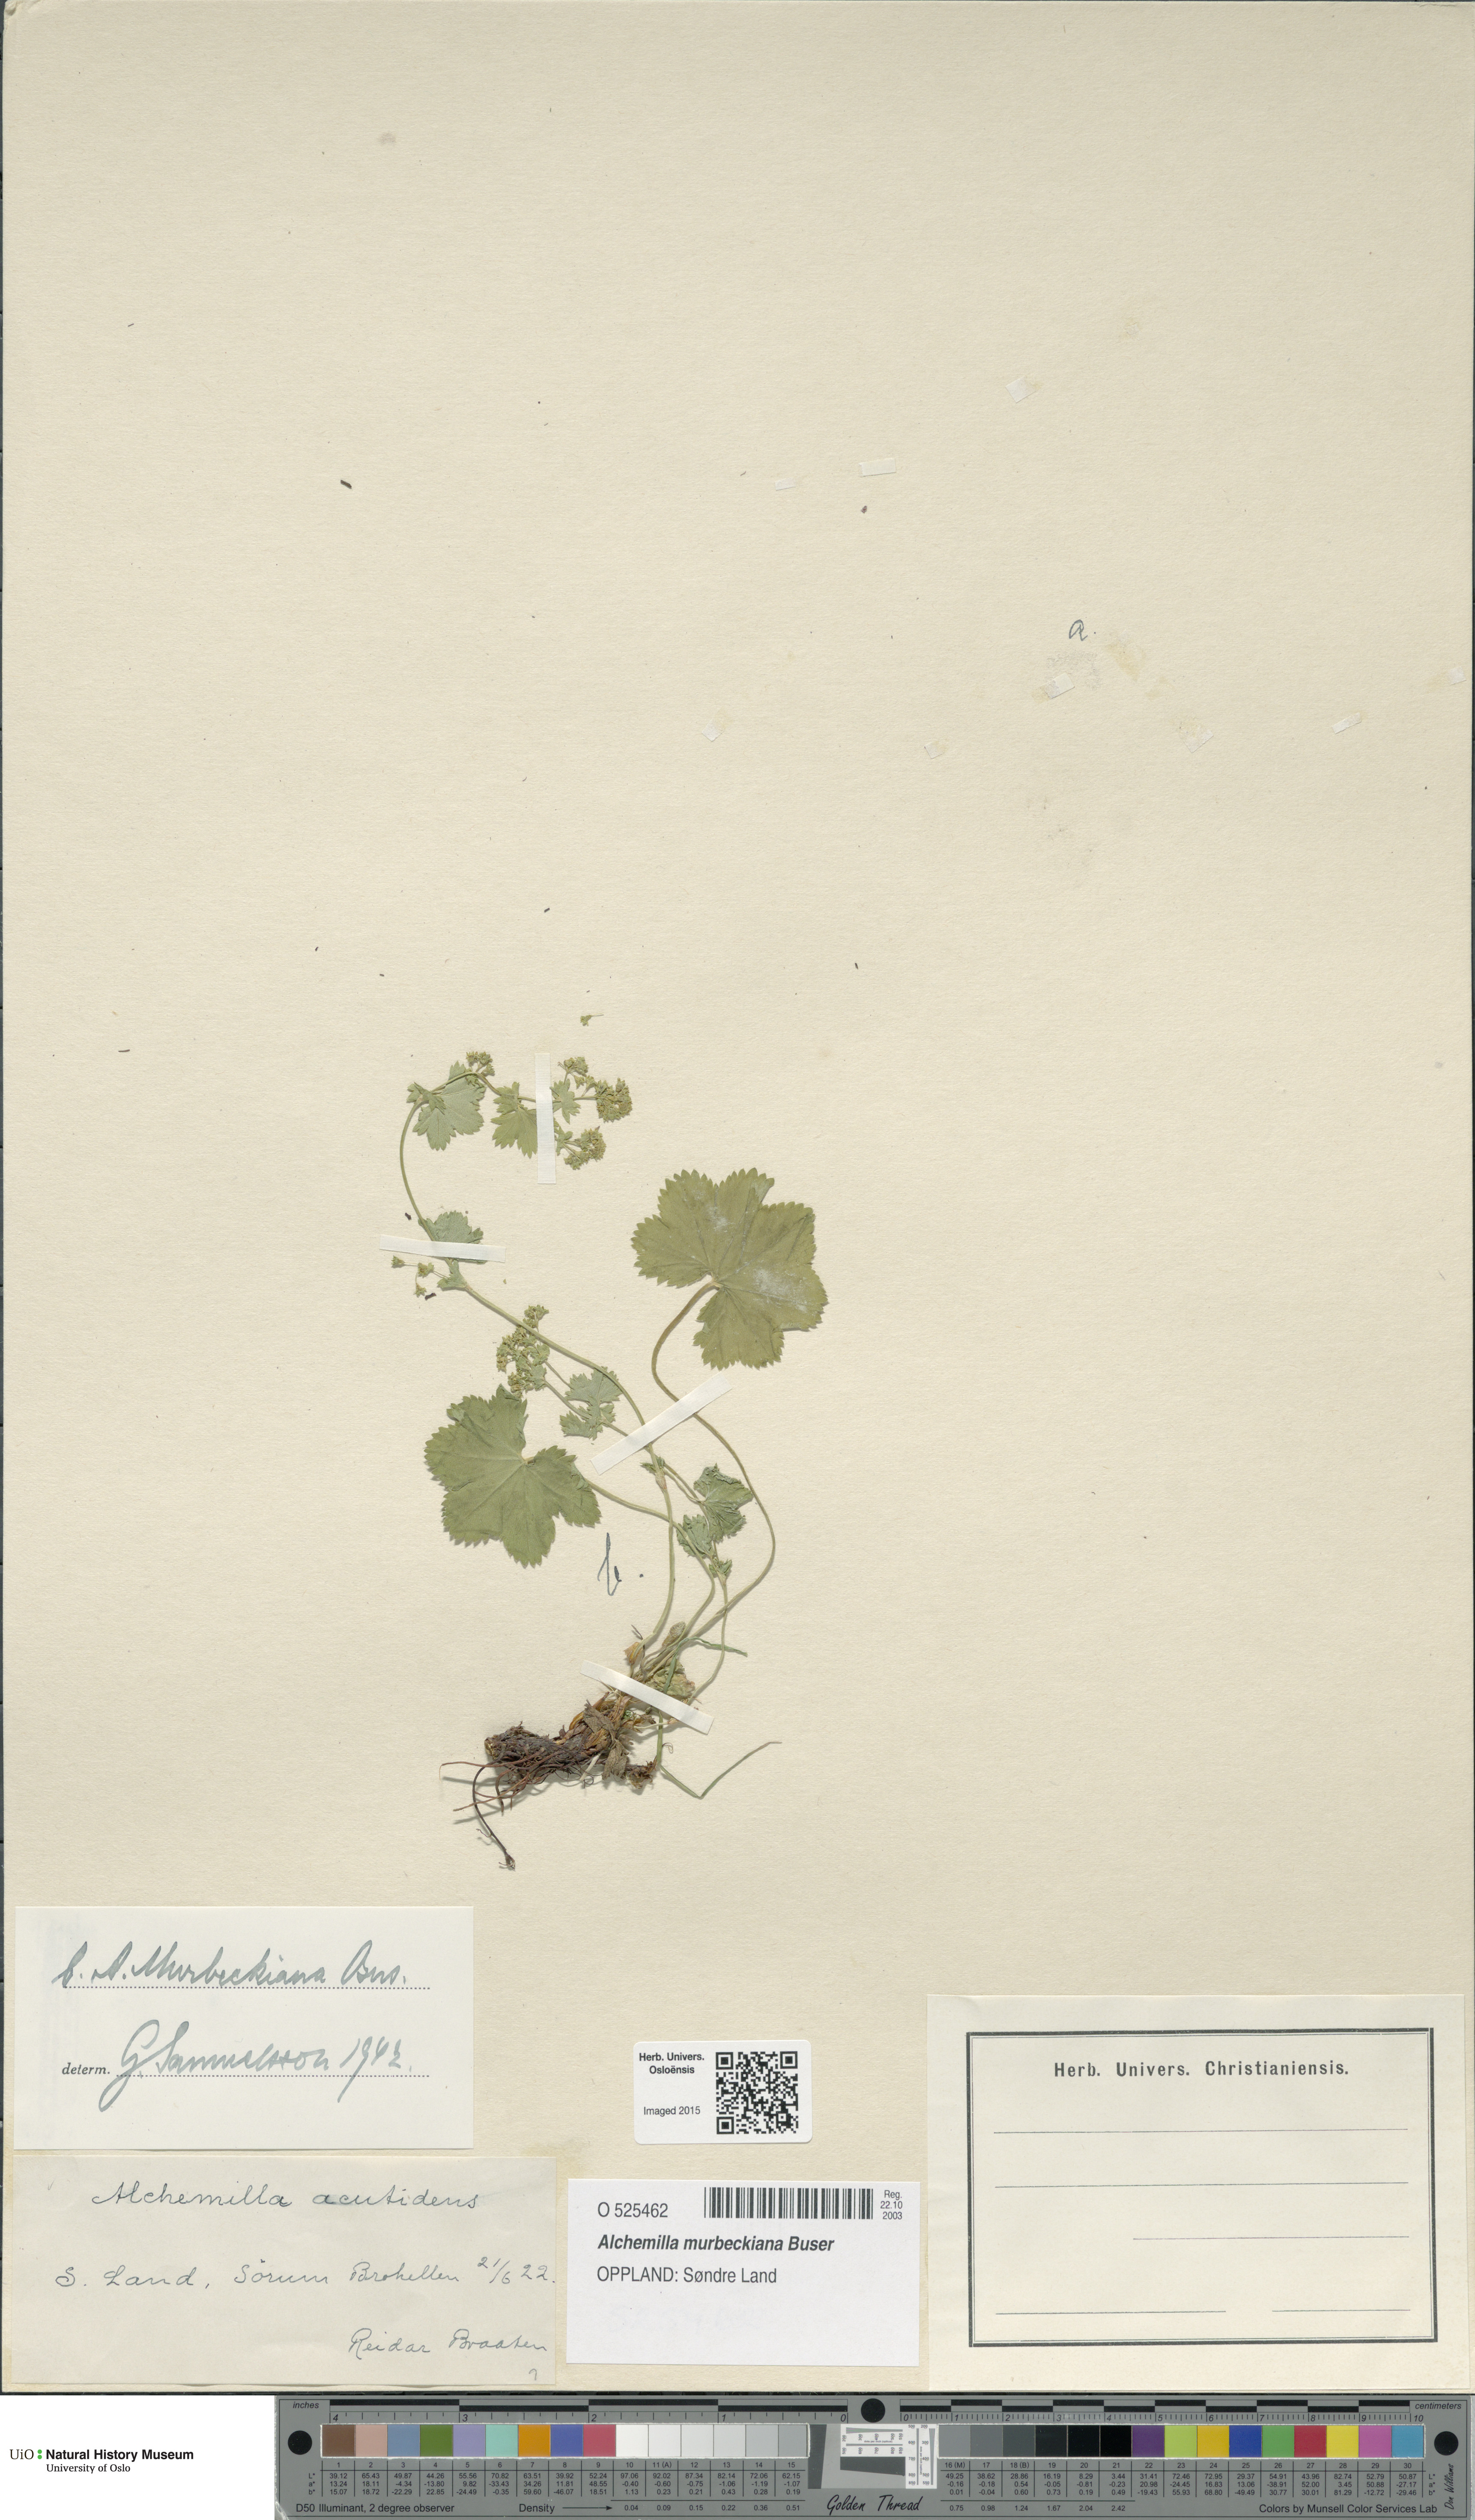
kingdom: Plantae
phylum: Tracheophyta
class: Magnoliopsida
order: Rosales
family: Rosaceae
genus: Alchemilla
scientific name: Alchemilla murbeckiana
